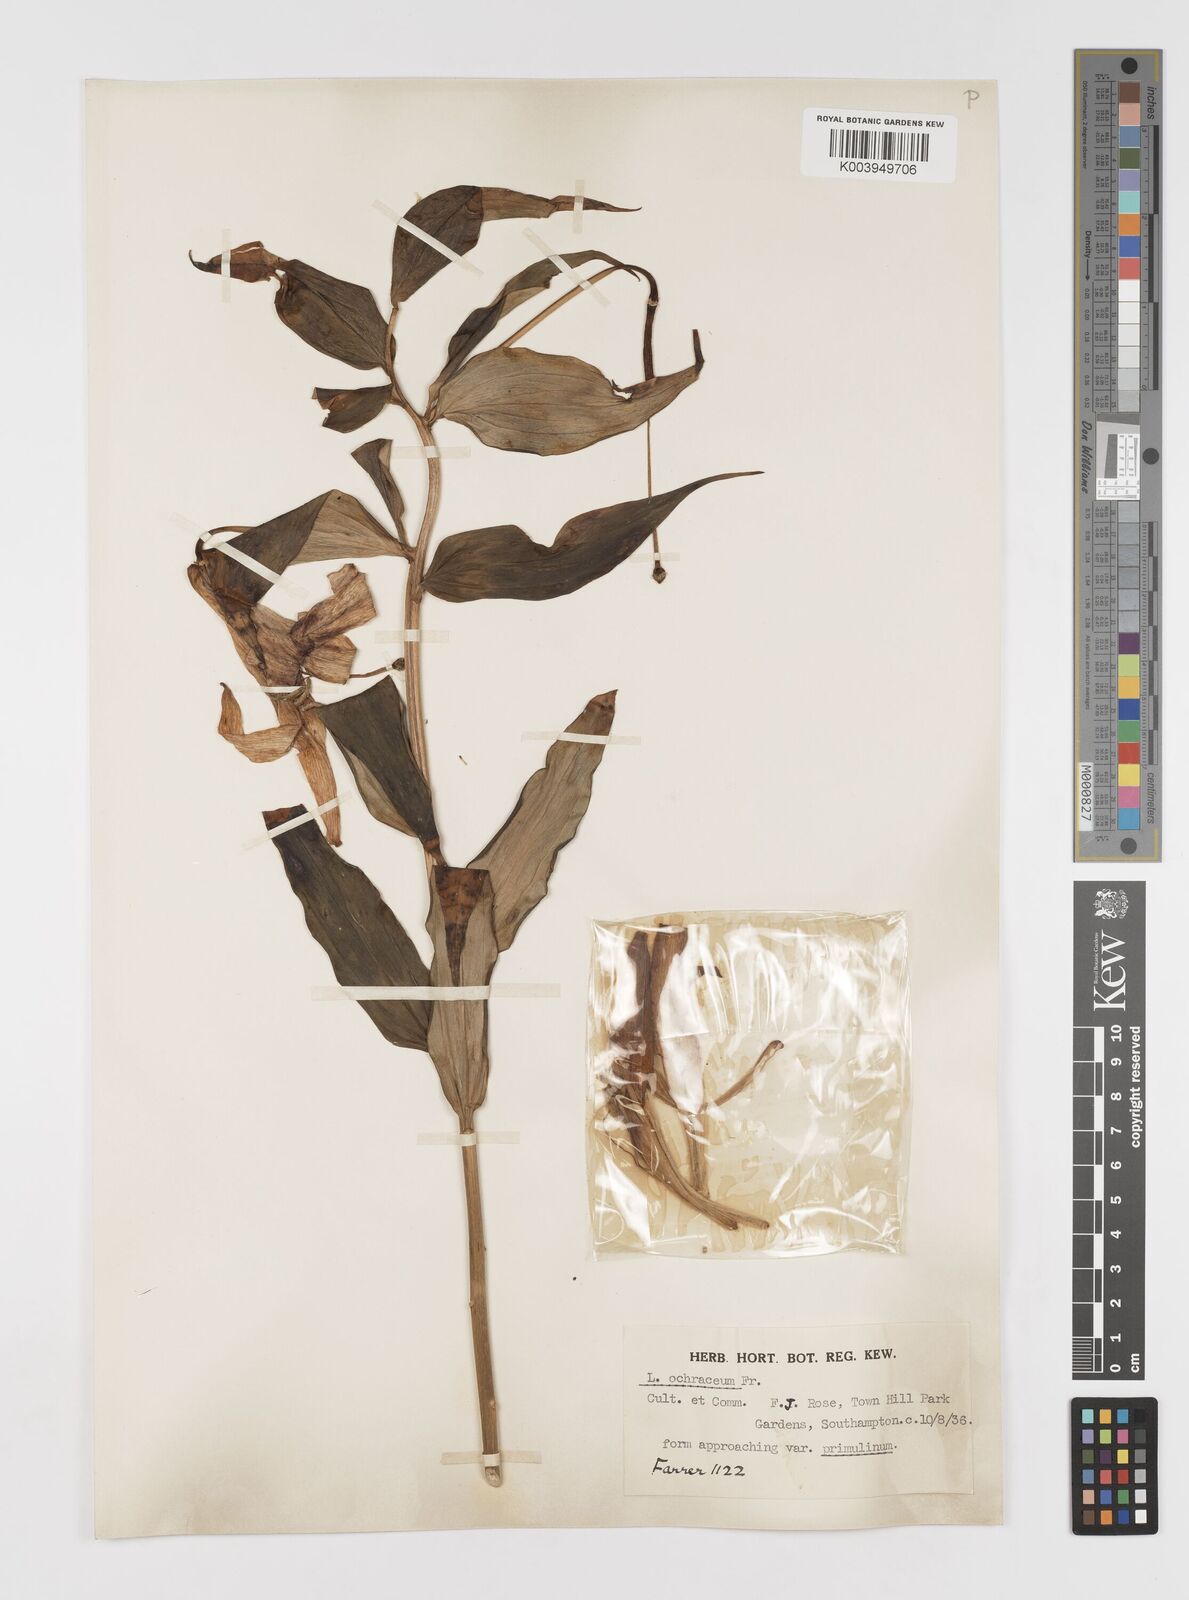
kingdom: Plantae
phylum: Tracheophyta
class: Liliopsida
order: Liliales
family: Liliaceae
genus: Lilium
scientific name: Lilium primulinum
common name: Ochre lily
